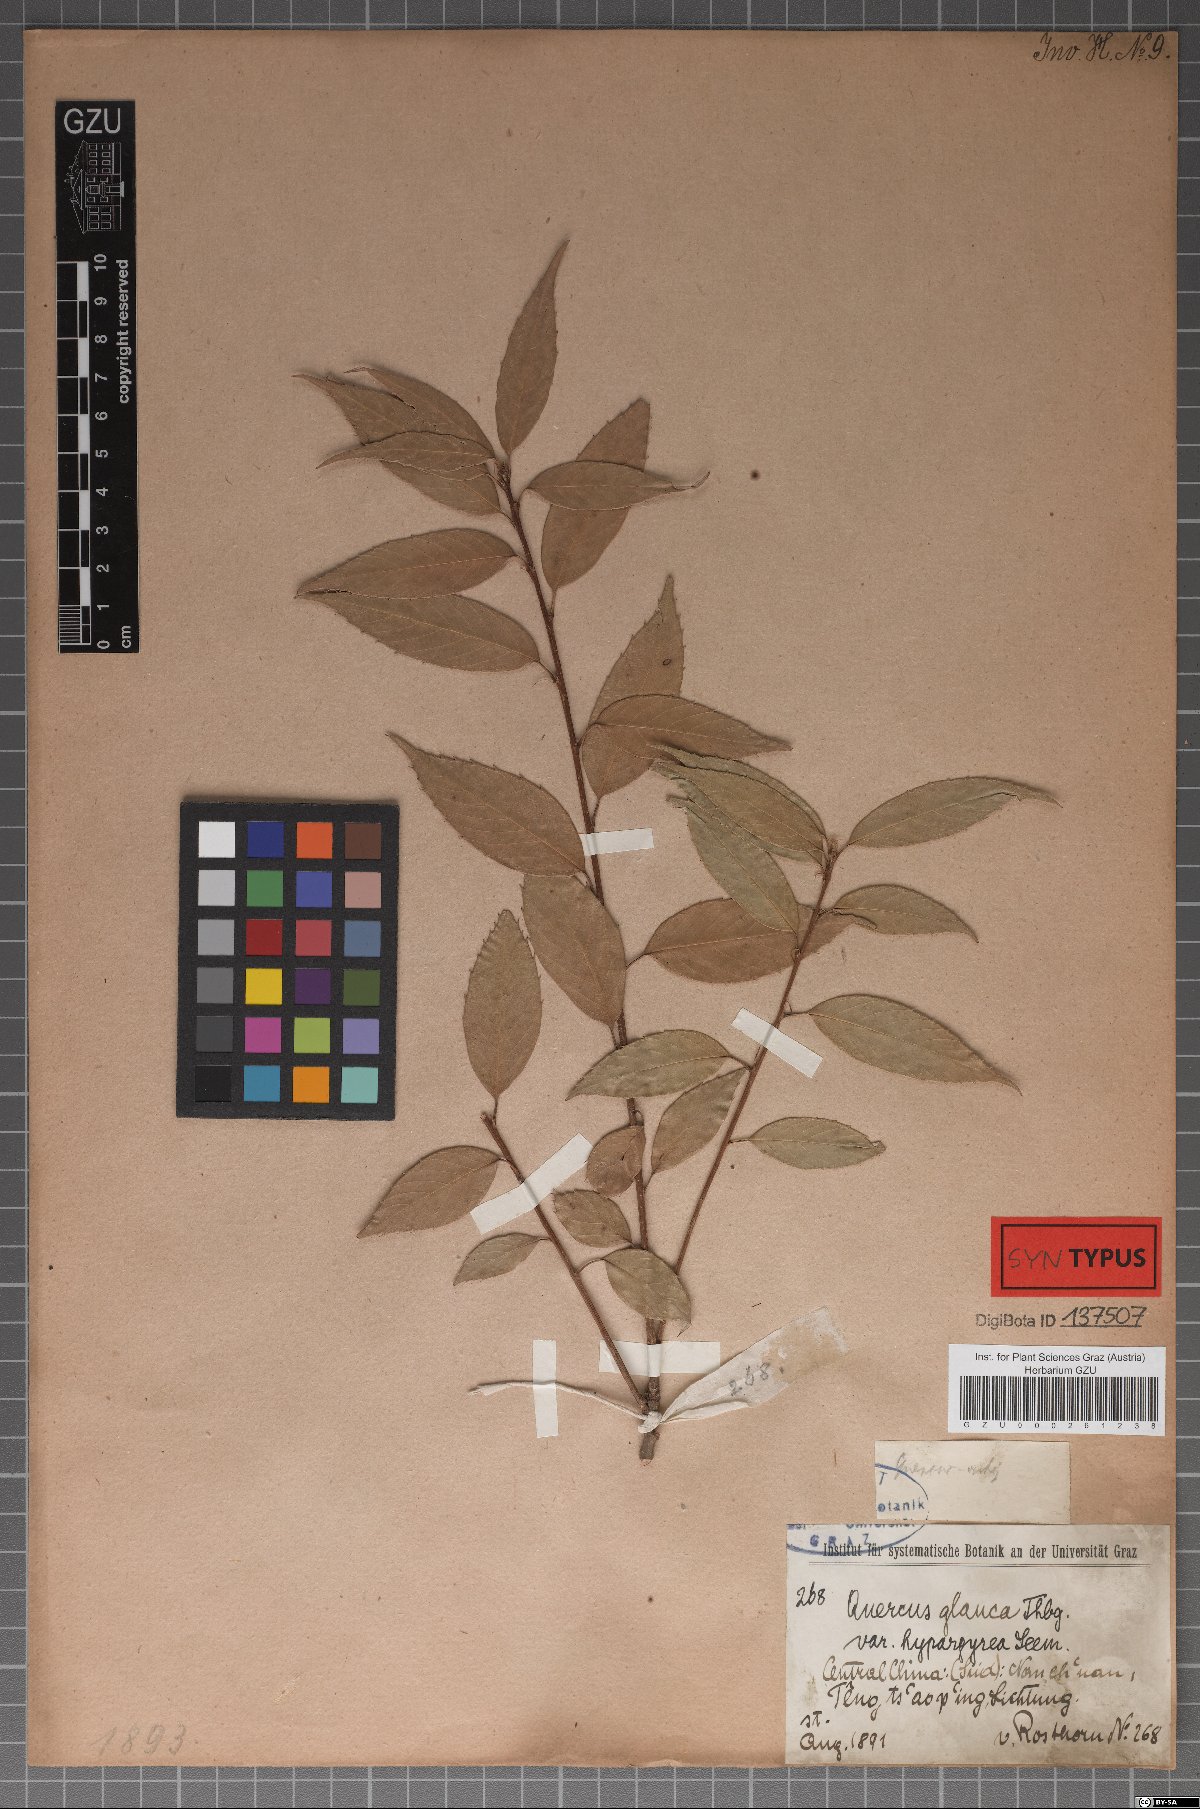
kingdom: Plantae
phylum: Tracheophyta
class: Magnoliopsida
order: Fagales
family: Fagaceae
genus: Quercus
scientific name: Quercus hypargyrea
